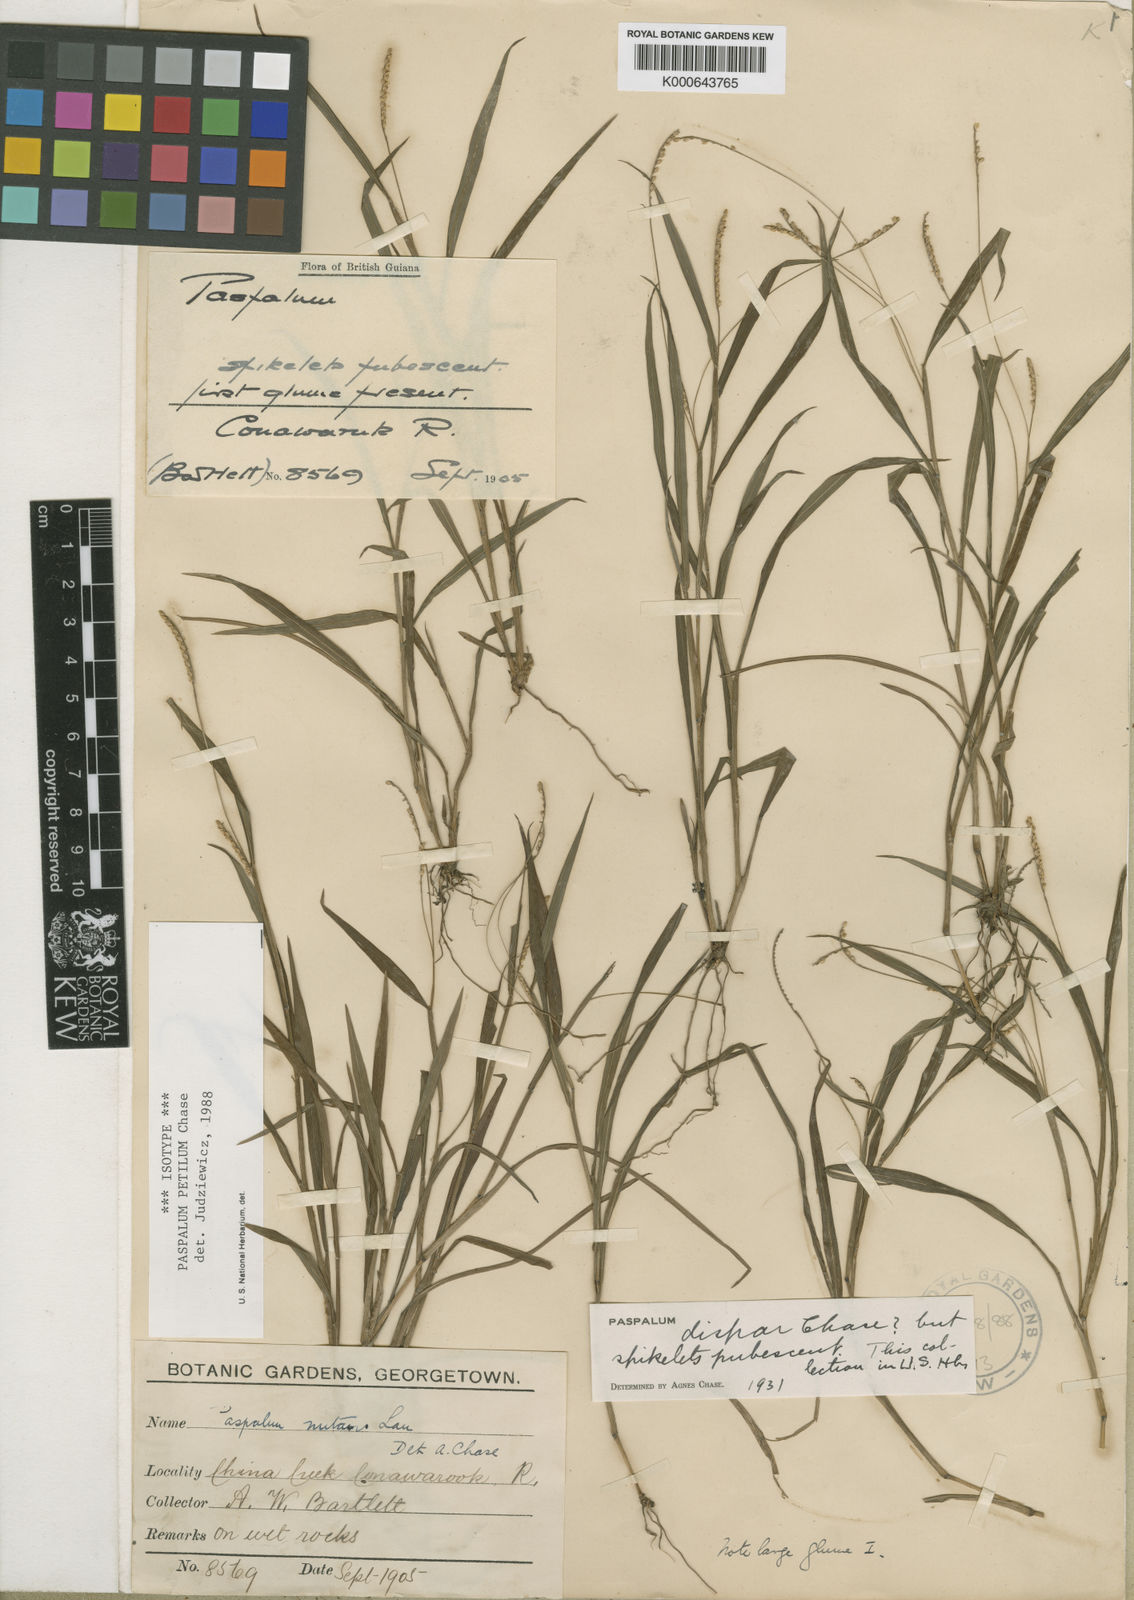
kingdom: Plantae
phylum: Tracheophyta
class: Liliopsida
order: Poales
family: Poaceae
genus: Paspalum
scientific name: Paspalum petilum
